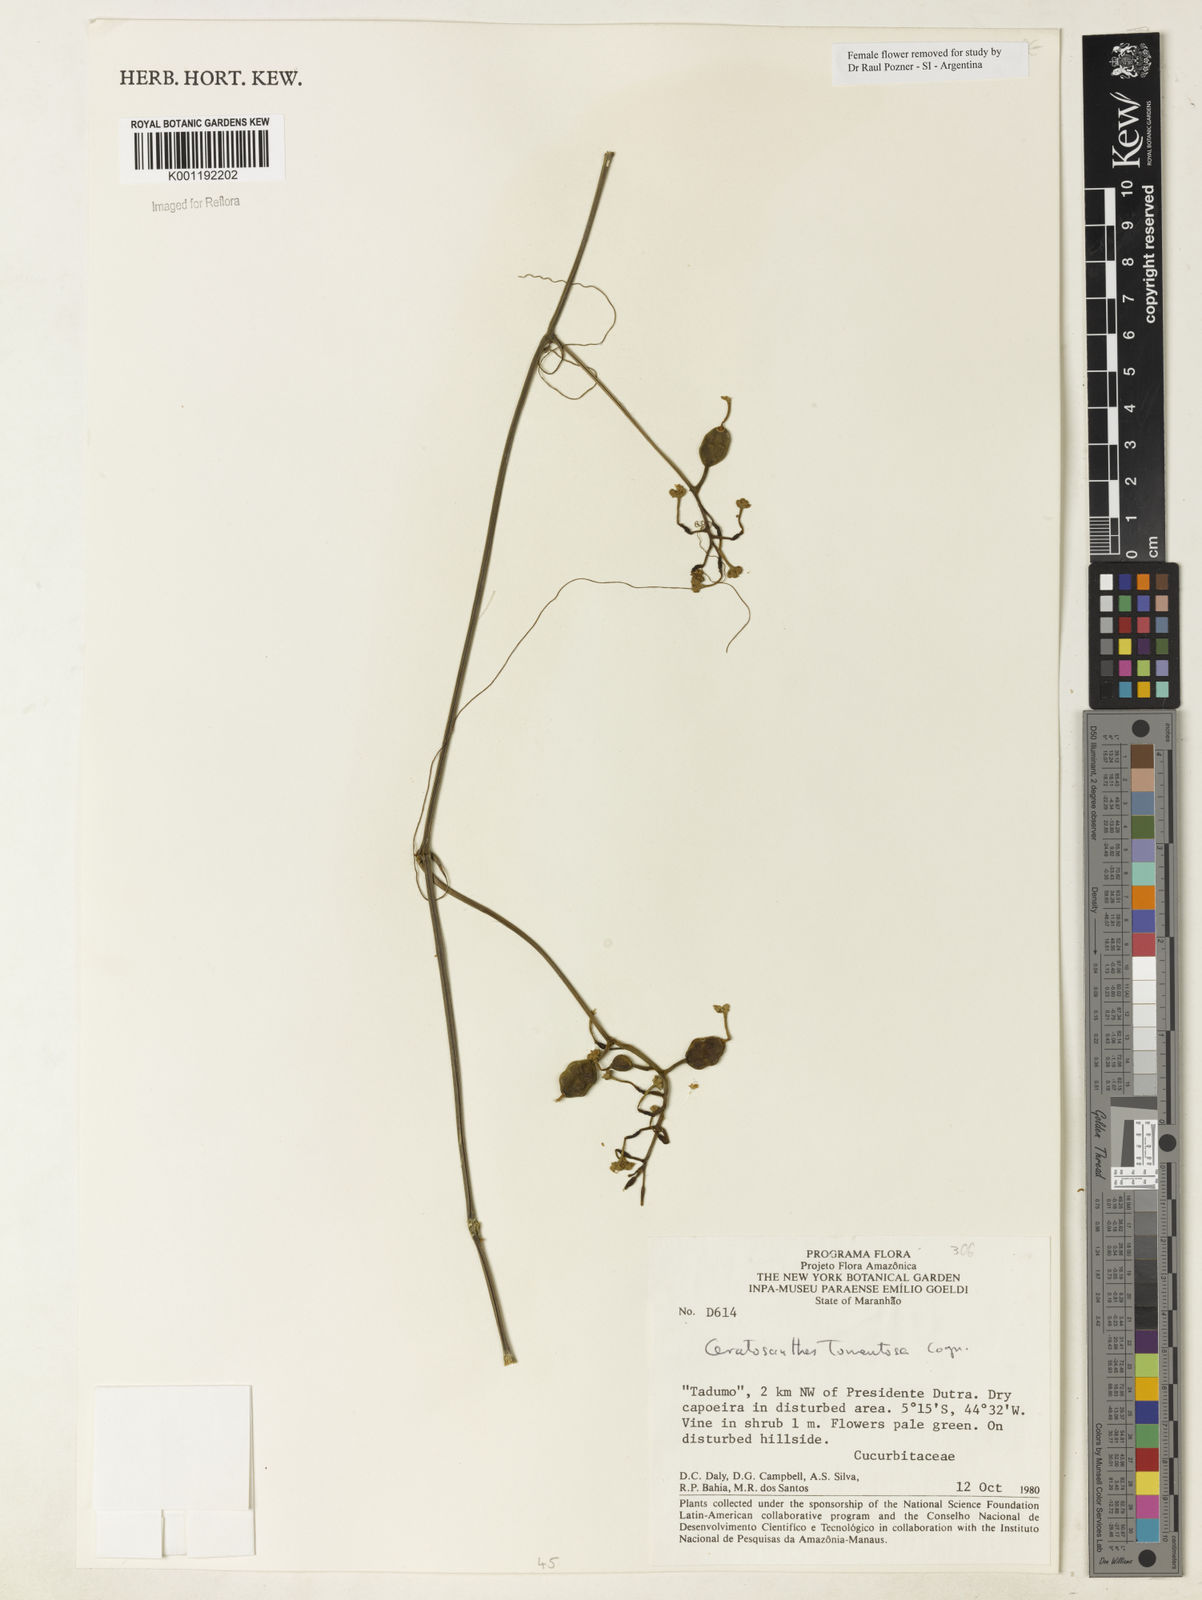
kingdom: Plantae
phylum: Tracheophyta
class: Magnoliopsida
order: Cucurbitales
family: Cucurbitaceae
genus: Ceratosanthes
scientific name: Ceratosanthes tomentosa
